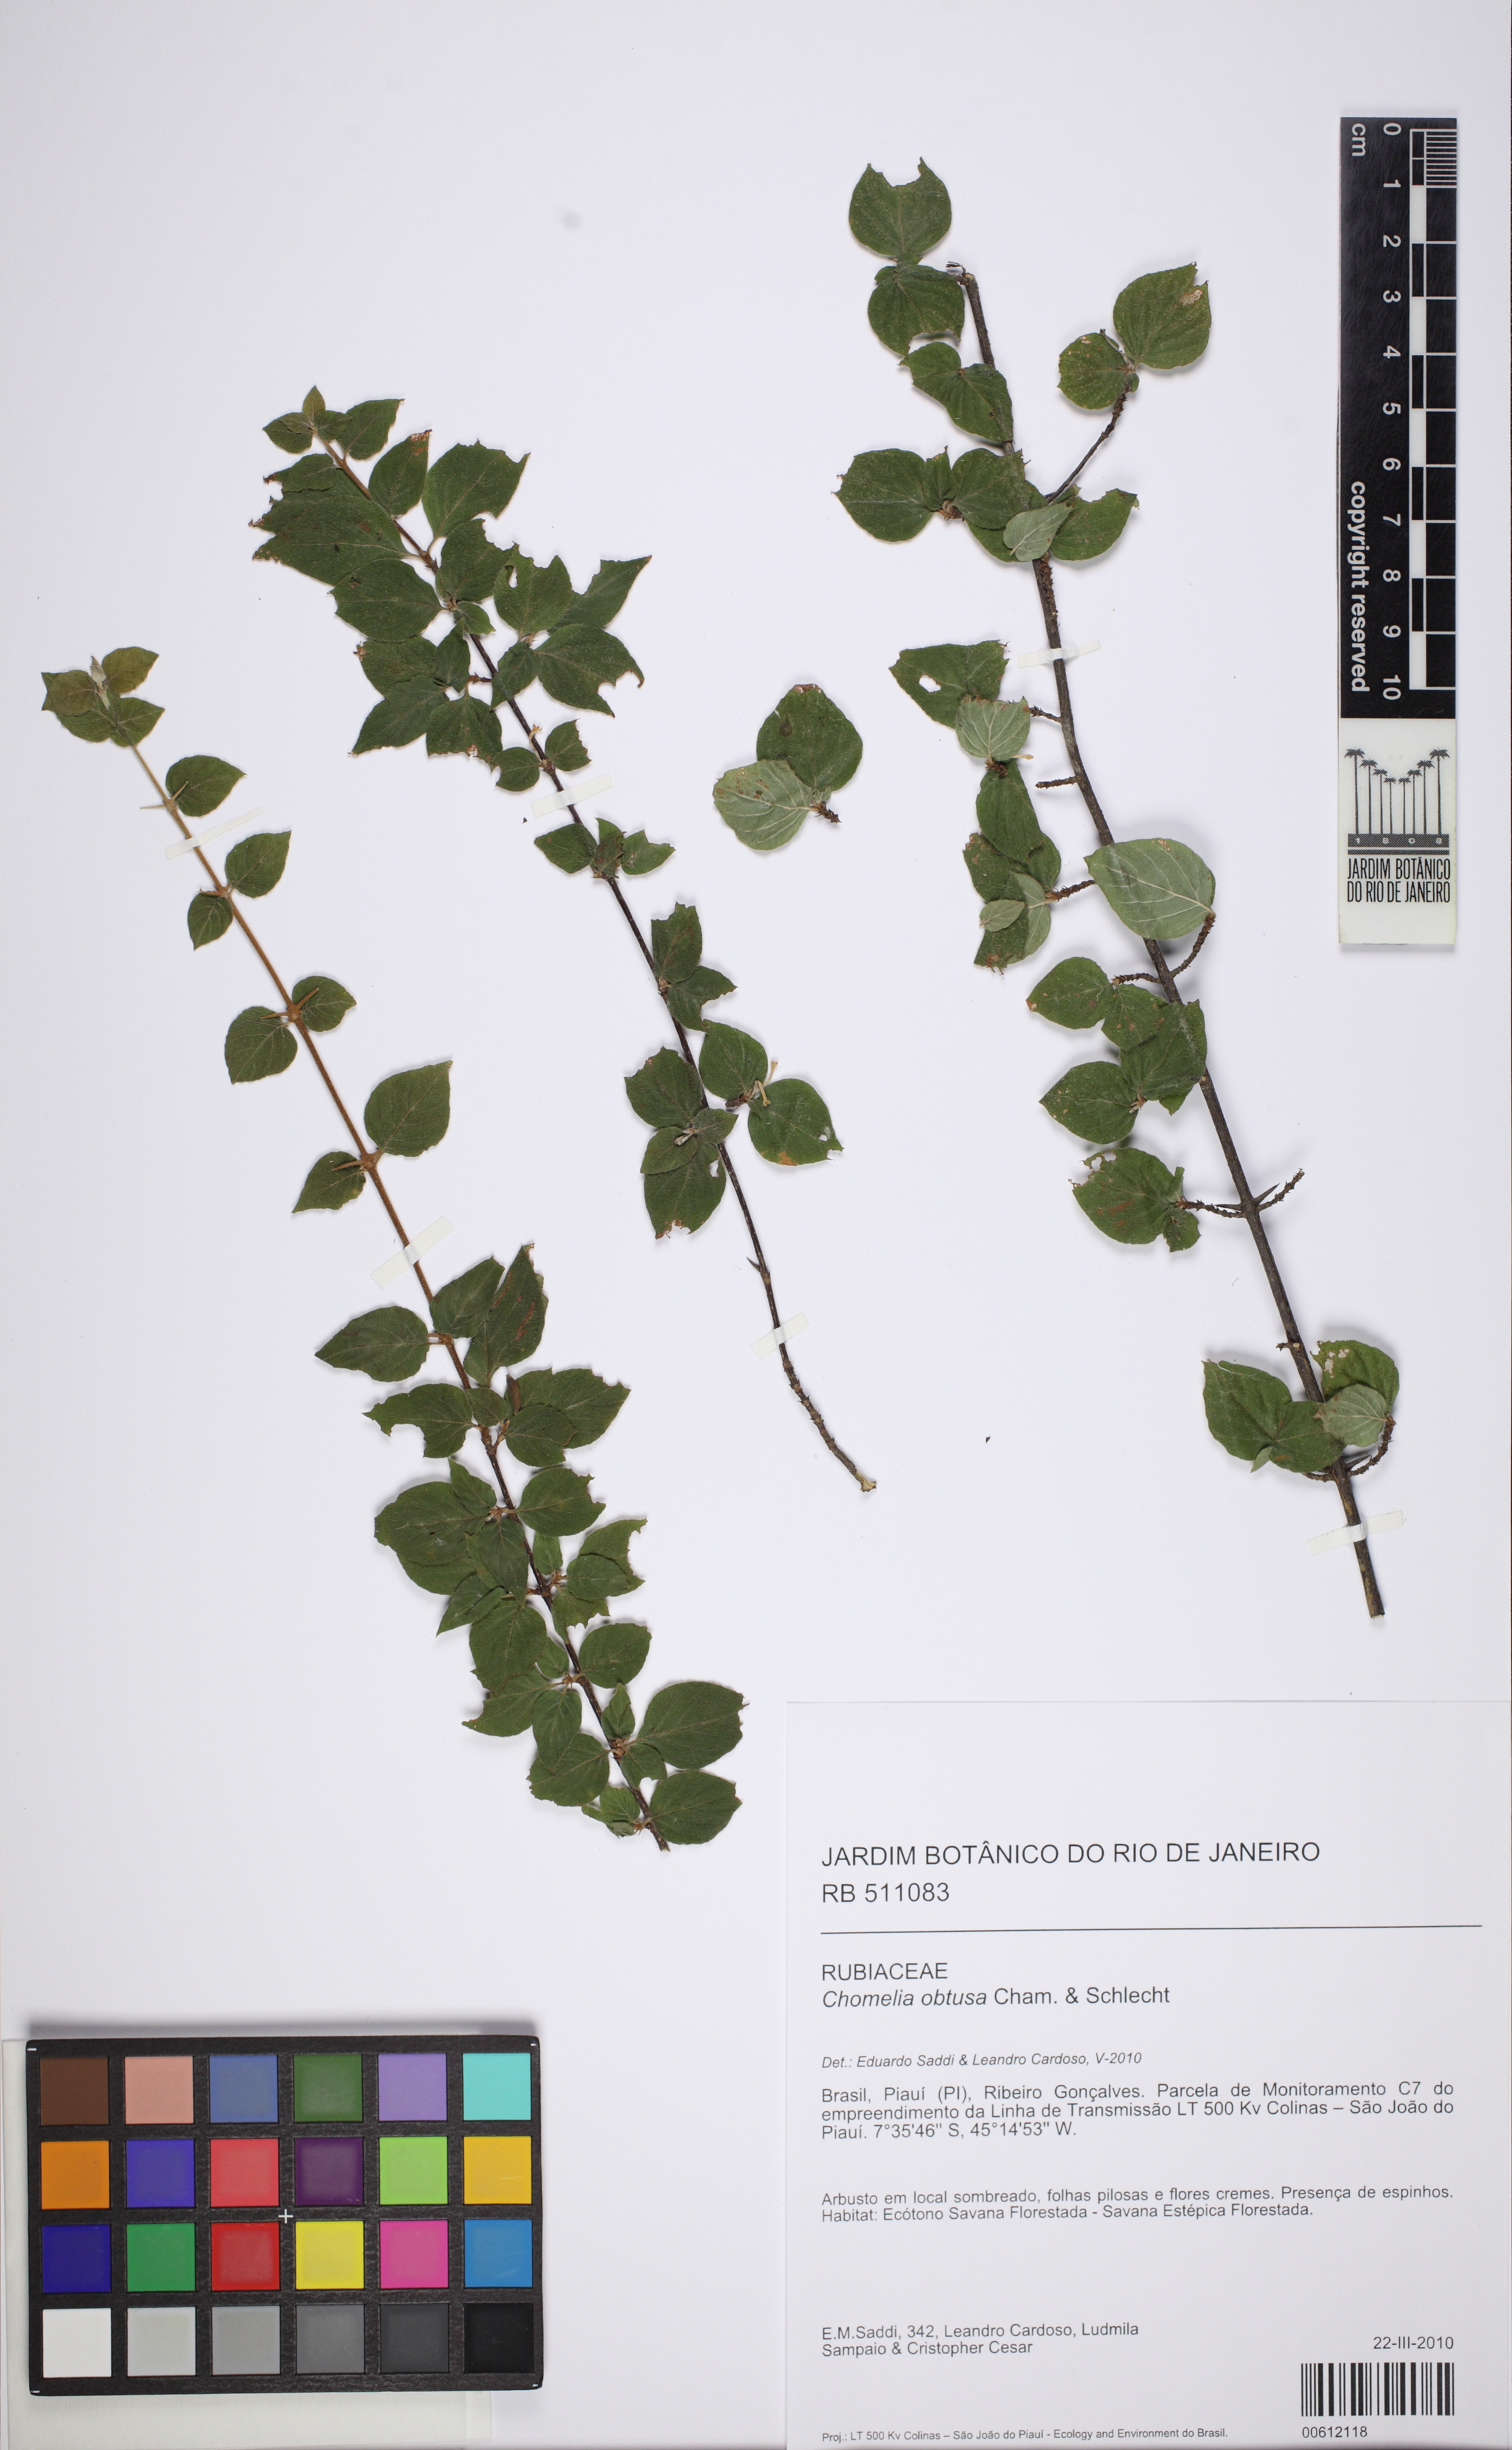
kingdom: Plantae
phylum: Tracheophyta
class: Magnoliopsida
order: Gentianales
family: Rubiaceae
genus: Chomelia
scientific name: Chomelia obtusa
